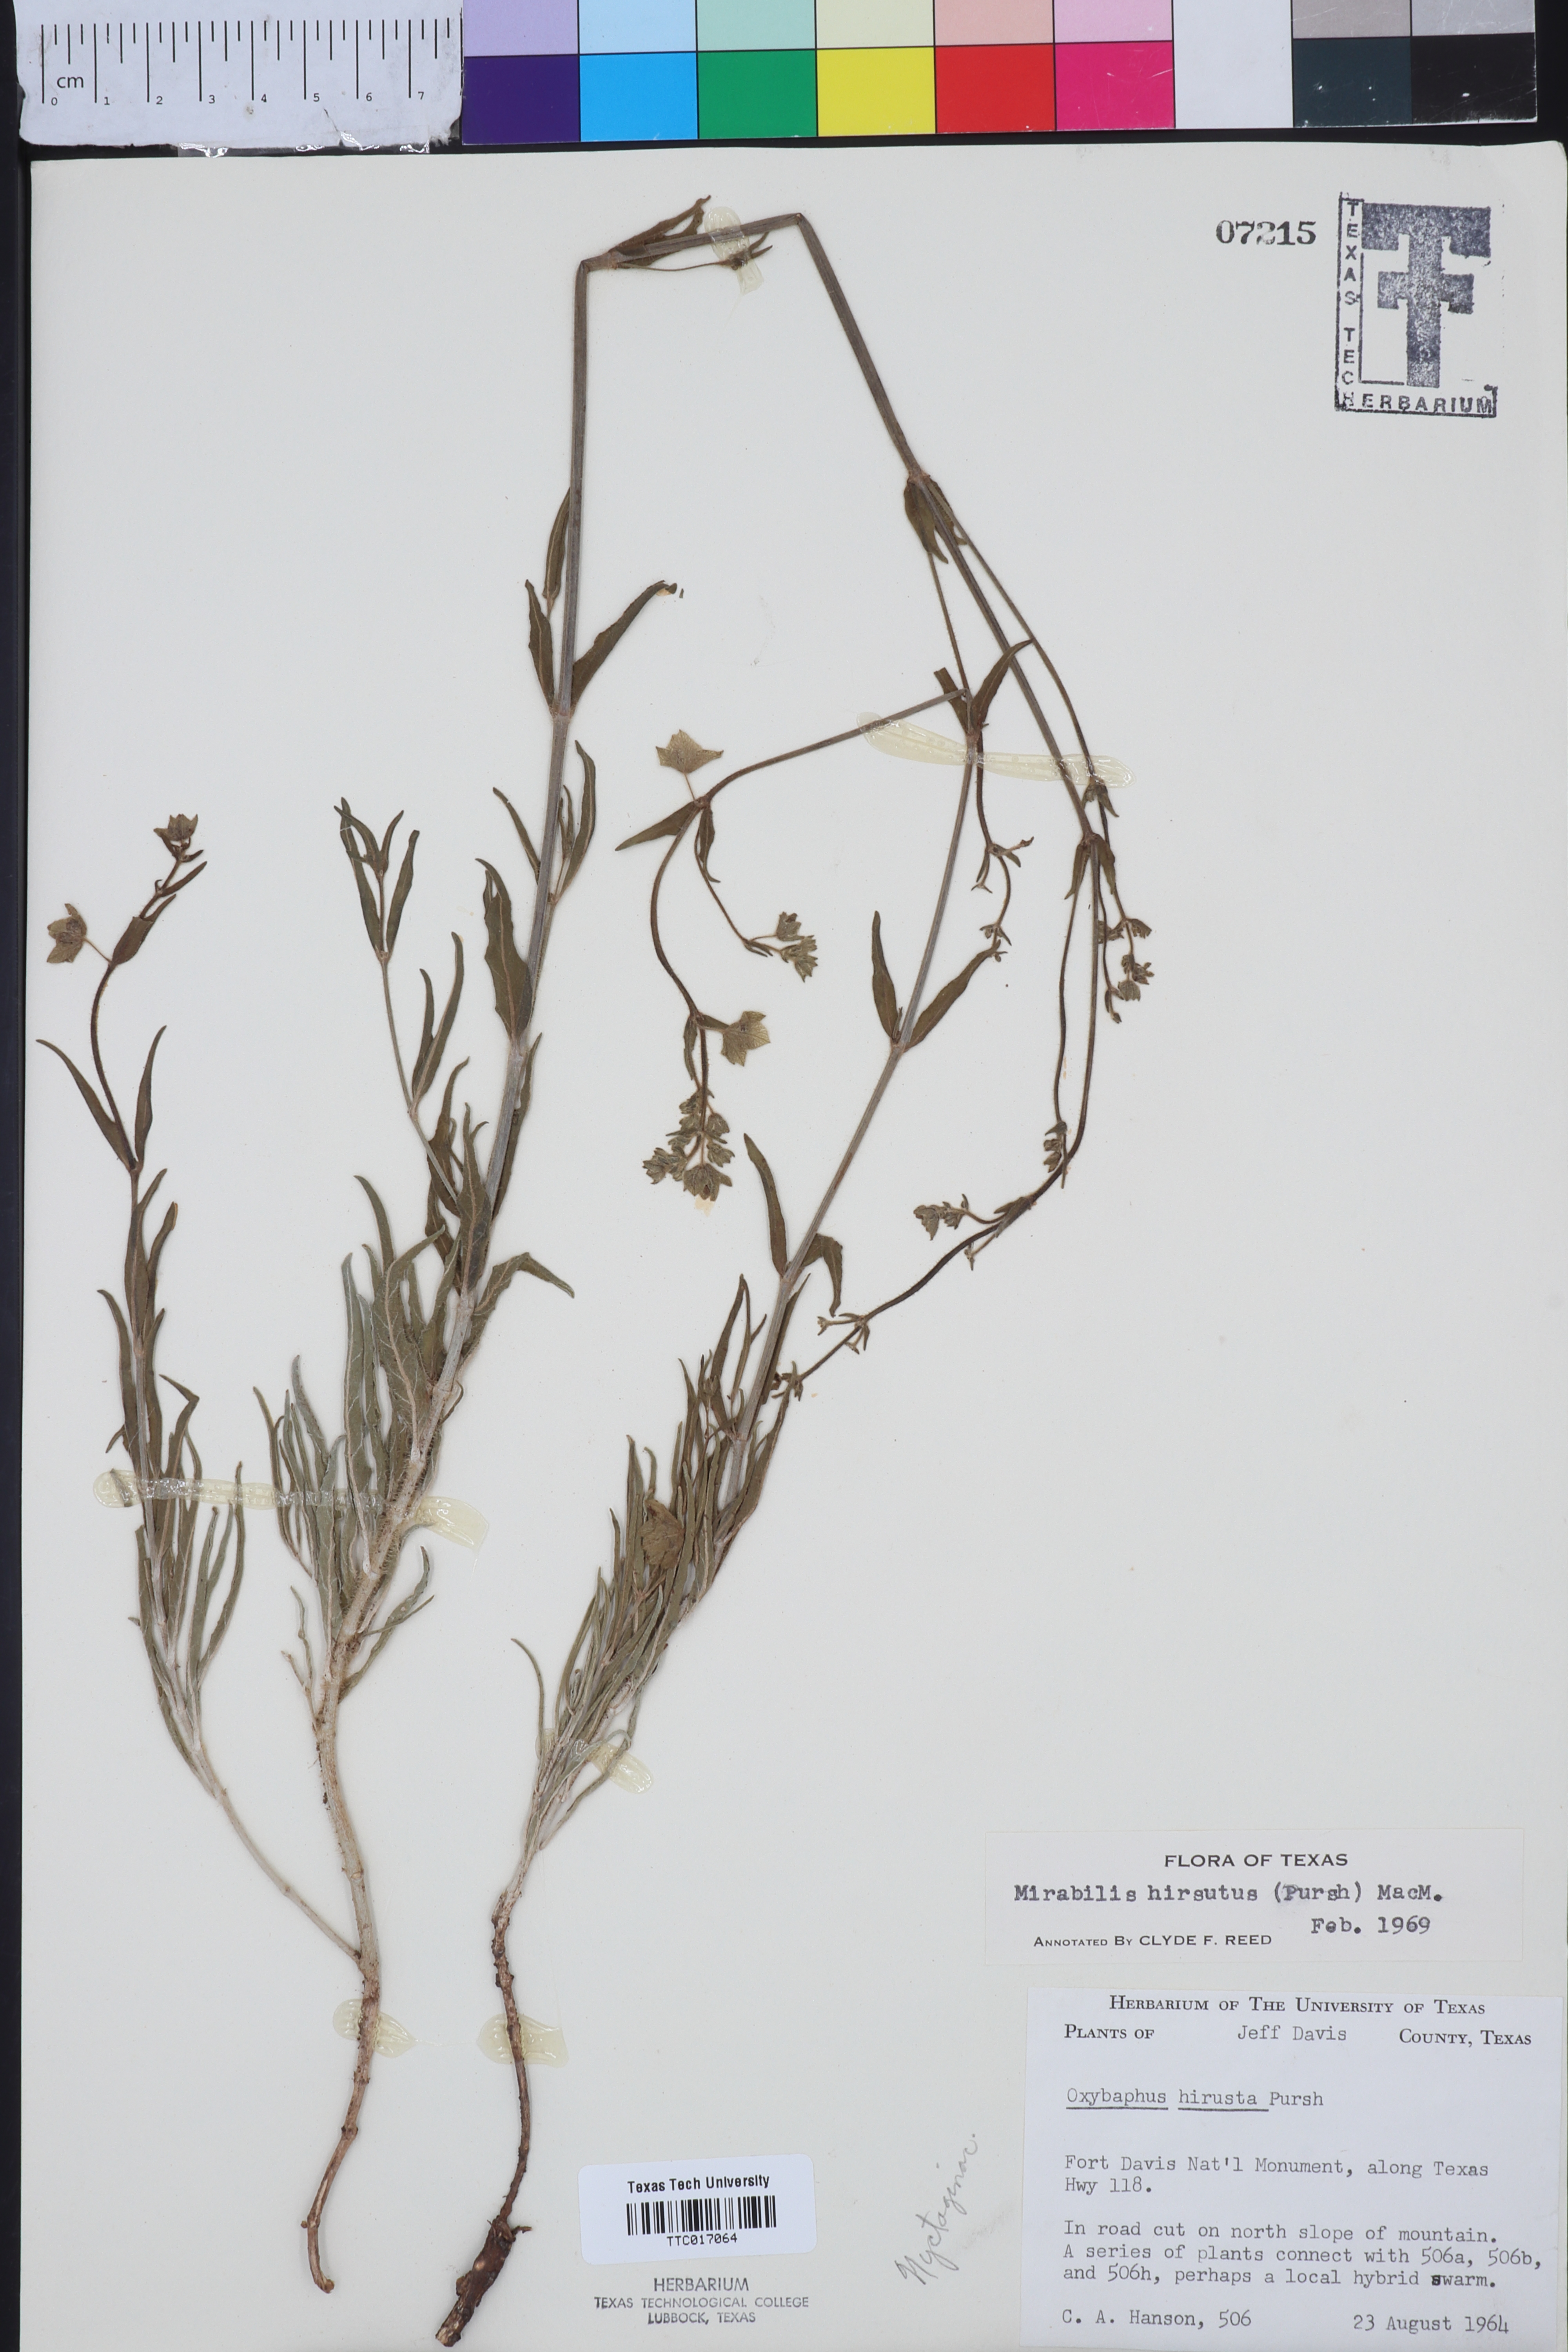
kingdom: Plantae
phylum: Tracheophyta
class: Magnoliopsida
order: Caryophyllales
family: Nyctaginaceae
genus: Mirabilis
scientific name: Mirabilis hirsuta
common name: Hairy four-o'clock
